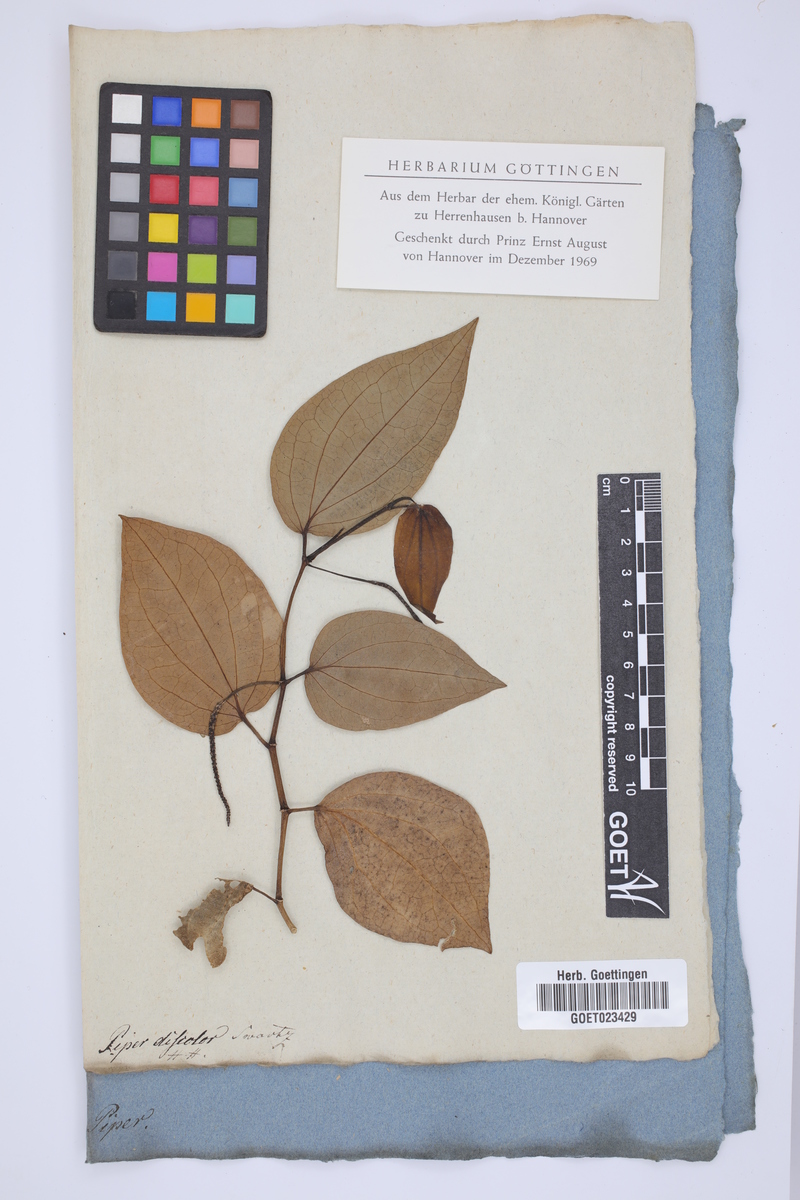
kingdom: Plantae
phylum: Tracheophyta
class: Magnoliopsida
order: Piperales
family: Piperaceae
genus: Peperomia
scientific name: Peperomia discolor
